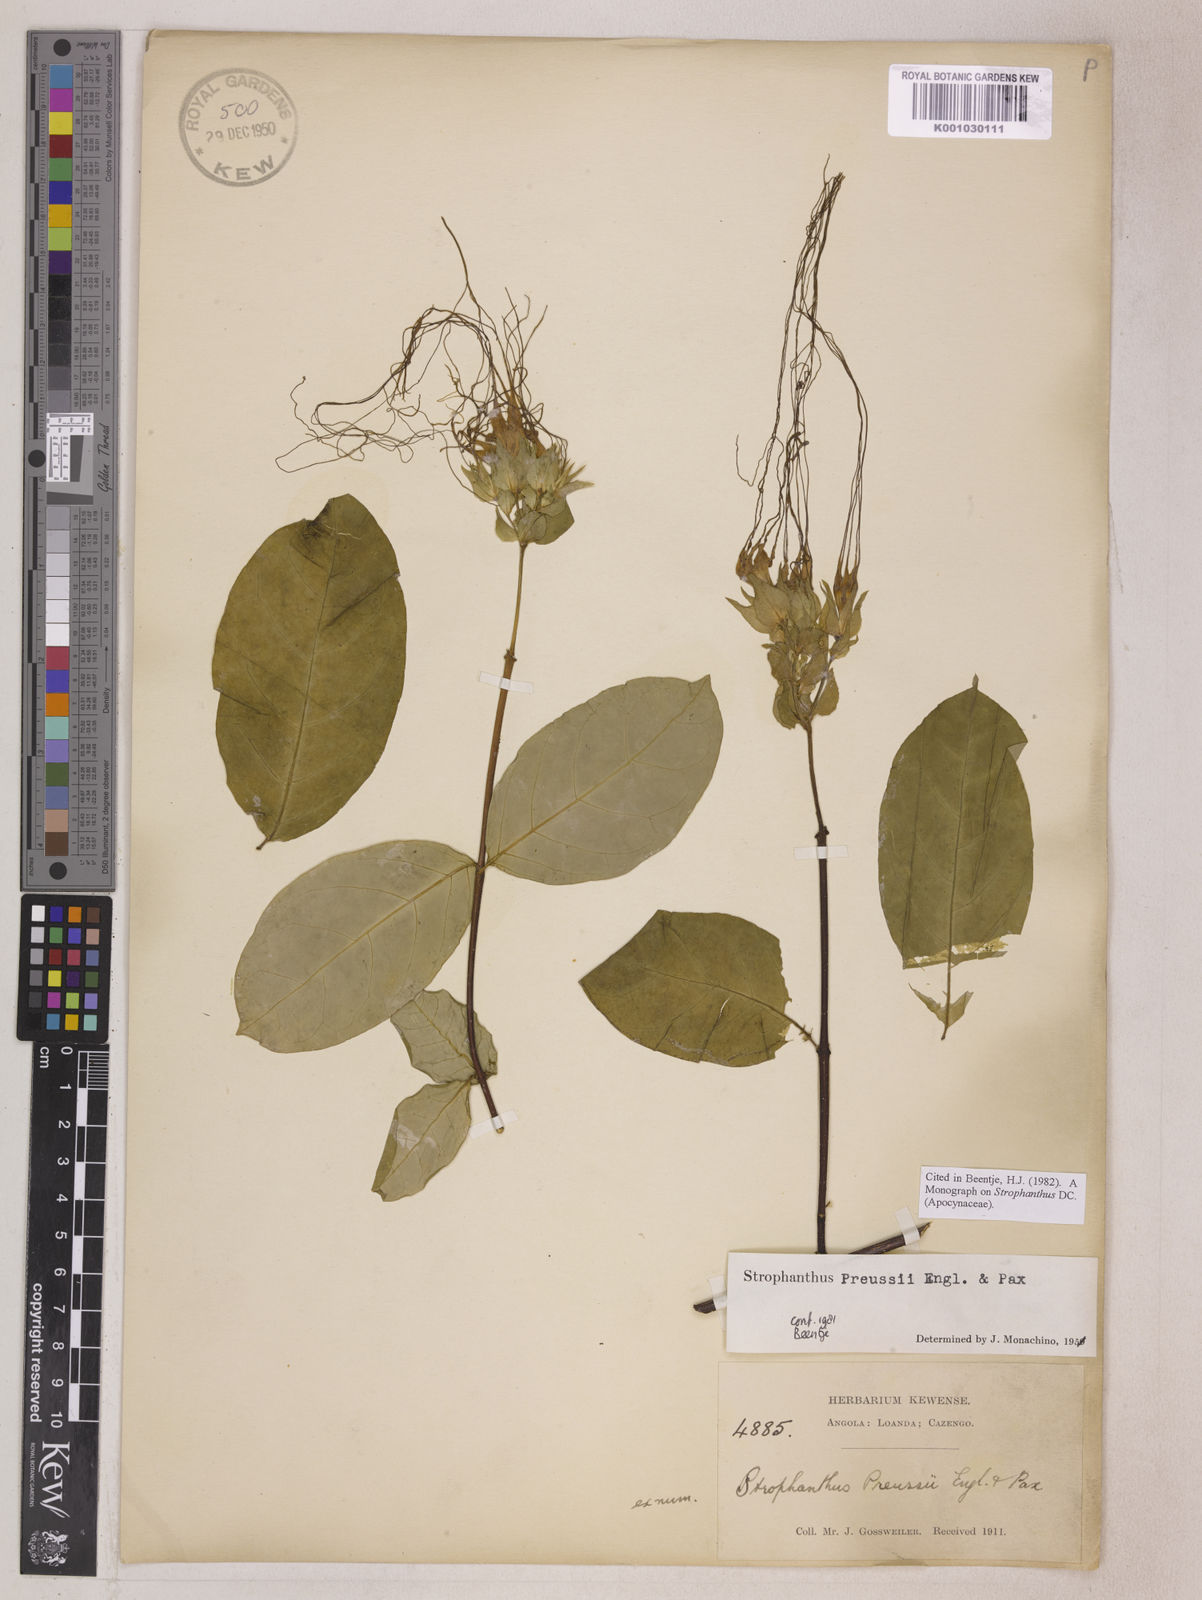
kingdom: Plantae
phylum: Tracheophyta
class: Magnoliopsida
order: Gentianales
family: Apocynaceae
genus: Strophanthus
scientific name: Strophanthus preussii
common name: Medisa-flower
